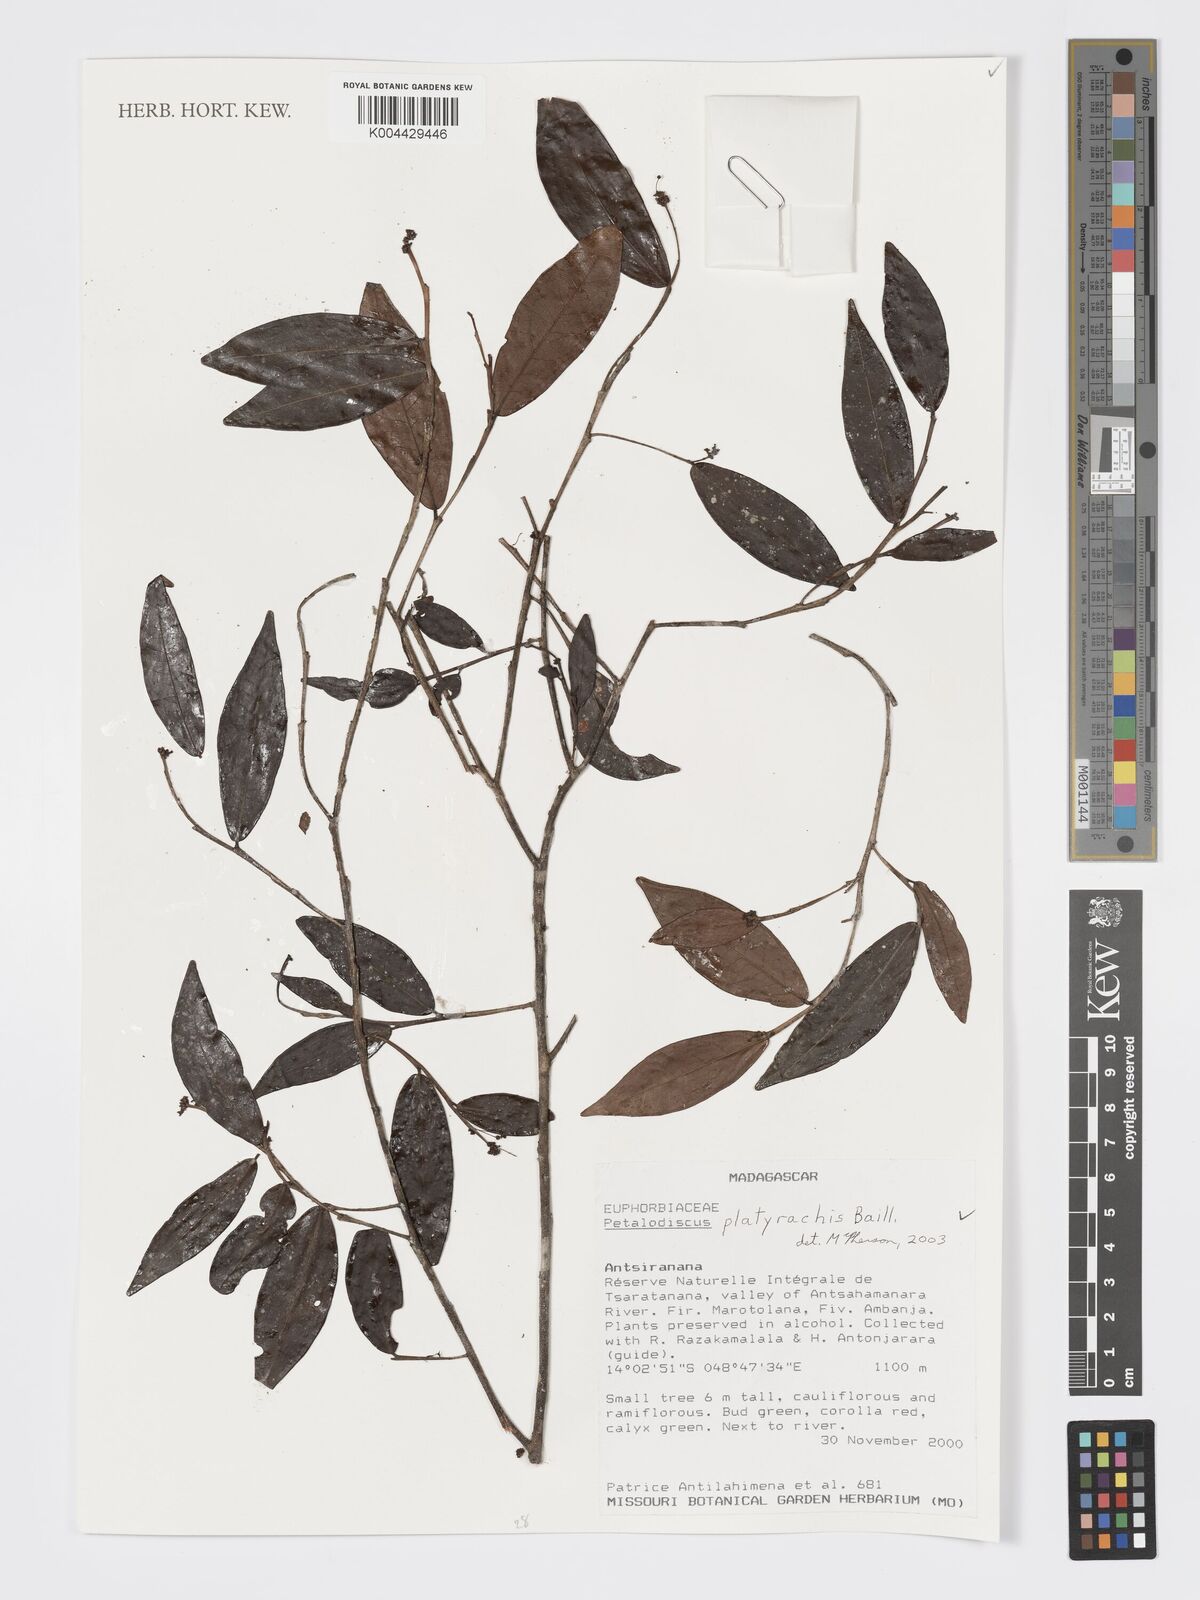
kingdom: Plantae
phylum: Tracheophyta
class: Magnoliopsida
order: Malpighiales
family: Phyllanthaceae
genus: Wielandia
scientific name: Wielandia platyrachis
